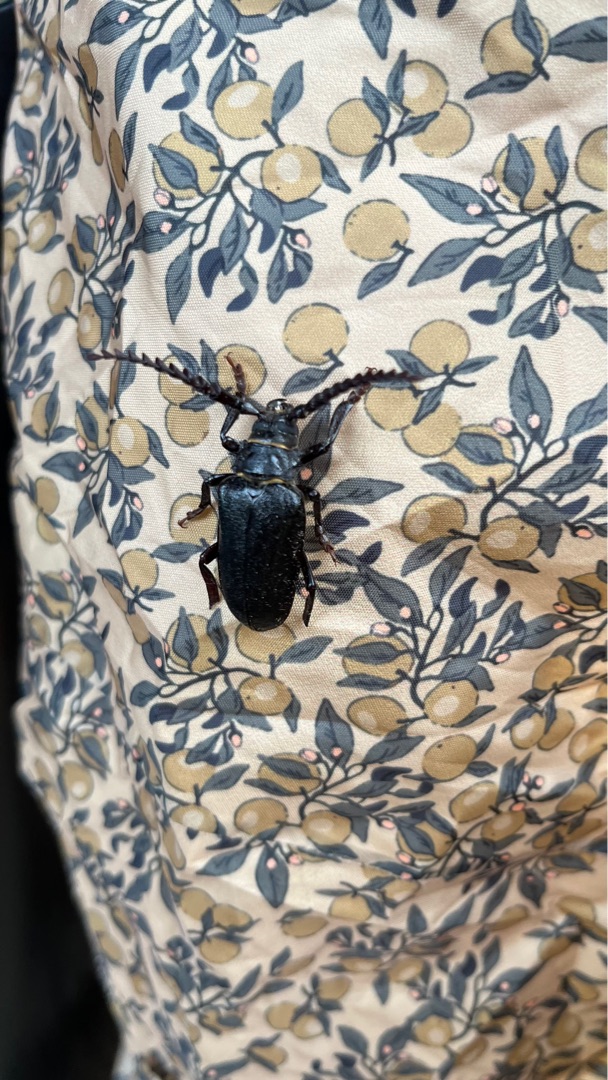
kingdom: Animalia
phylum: Arthropoda
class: Insecta
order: Coleoptera
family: Cerambycidae
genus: Prionus
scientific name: Prionus coriarius
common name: Garver
